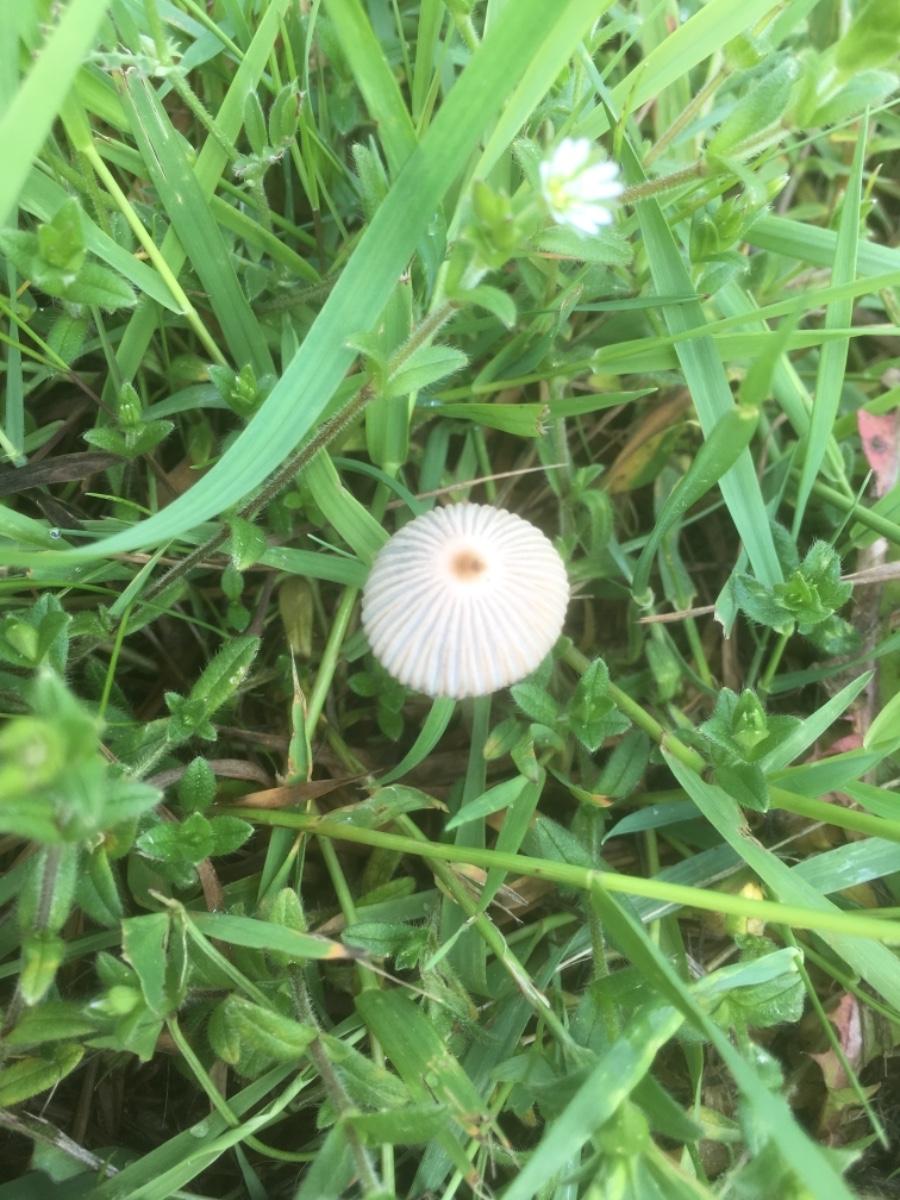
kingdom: Fungi
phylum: Basidiomycota
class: Agaricomycetes
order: Agaricales
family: Psathyrellaceae
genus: Parasola
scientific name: Parasola
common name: hjulhat
